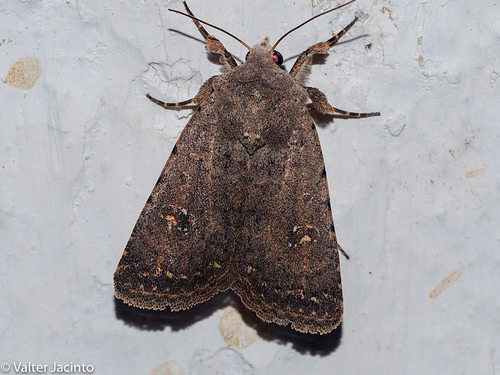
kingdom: Animalia
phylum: Arthropoda
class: Insecta
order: Lepidoptera
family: Noctuidae
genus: Caradrina
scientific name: Caradrina noctivaga
